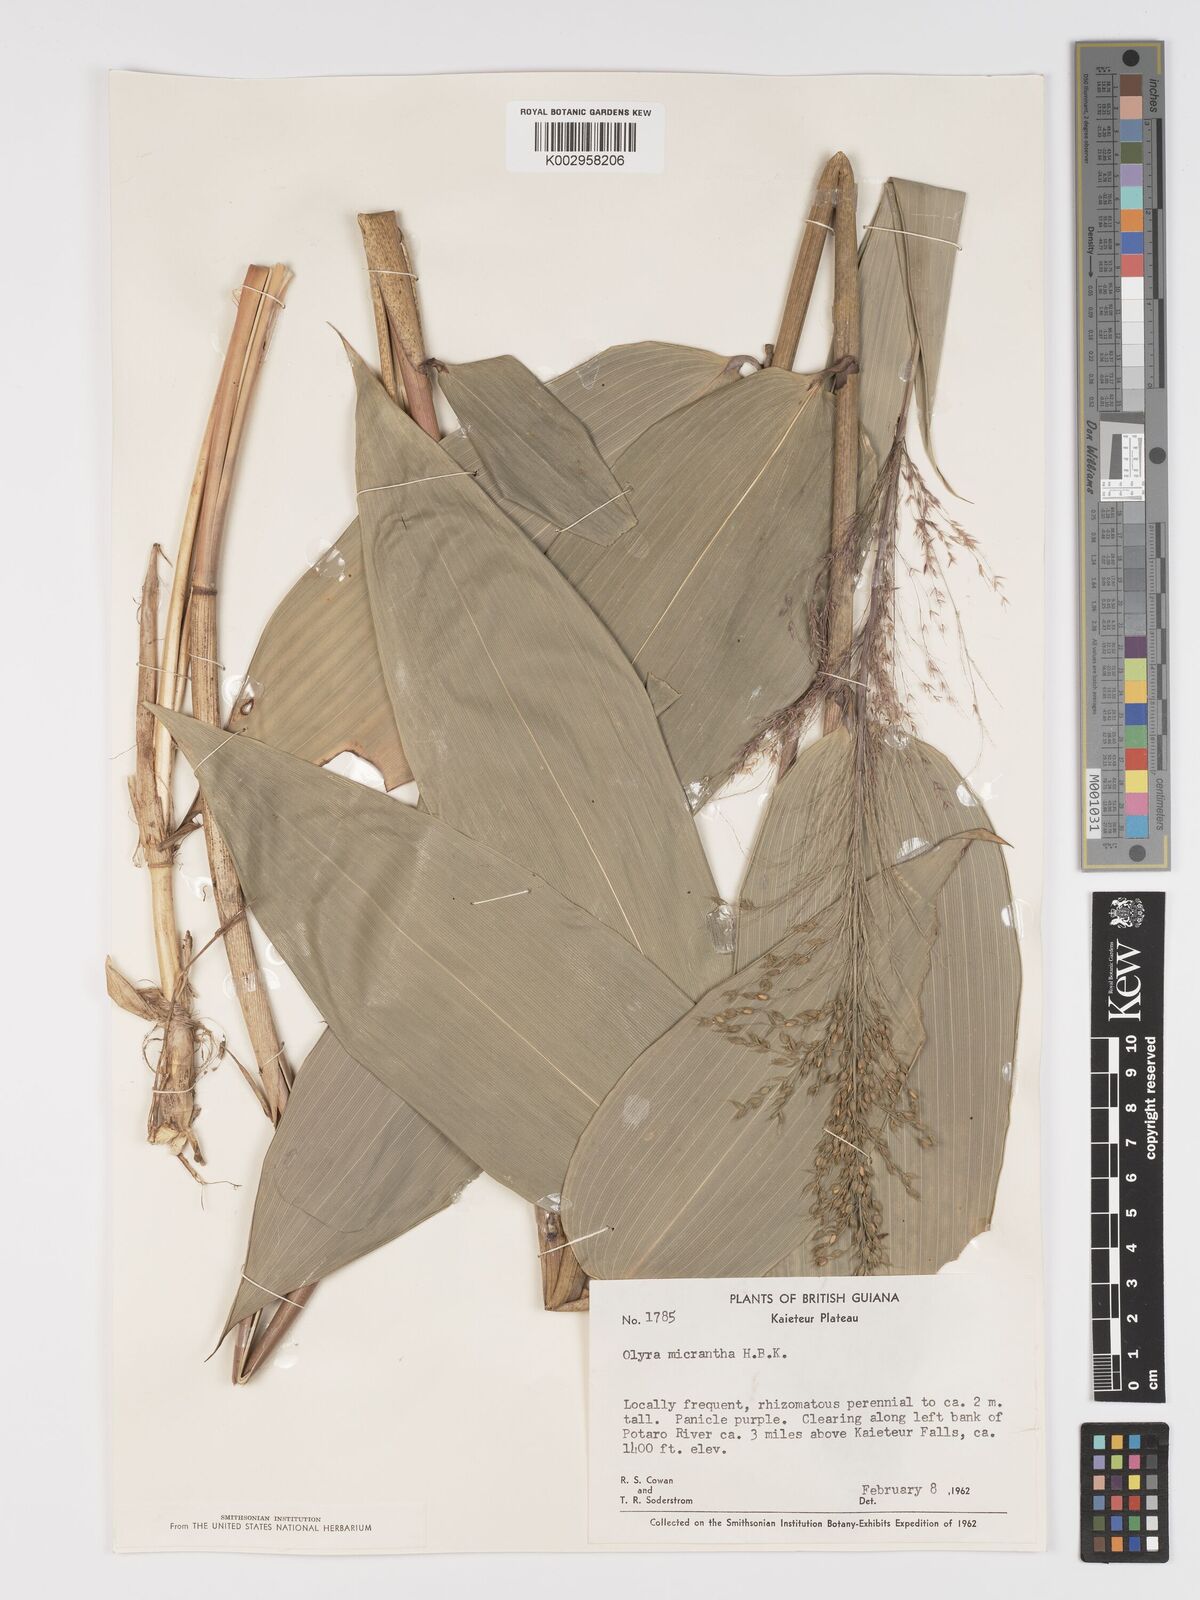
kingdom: Plantae
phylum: Tracheophyta
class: Liliopsida
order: Poales
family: Poaceae
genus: Taquara
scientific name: Taquara micrantha
